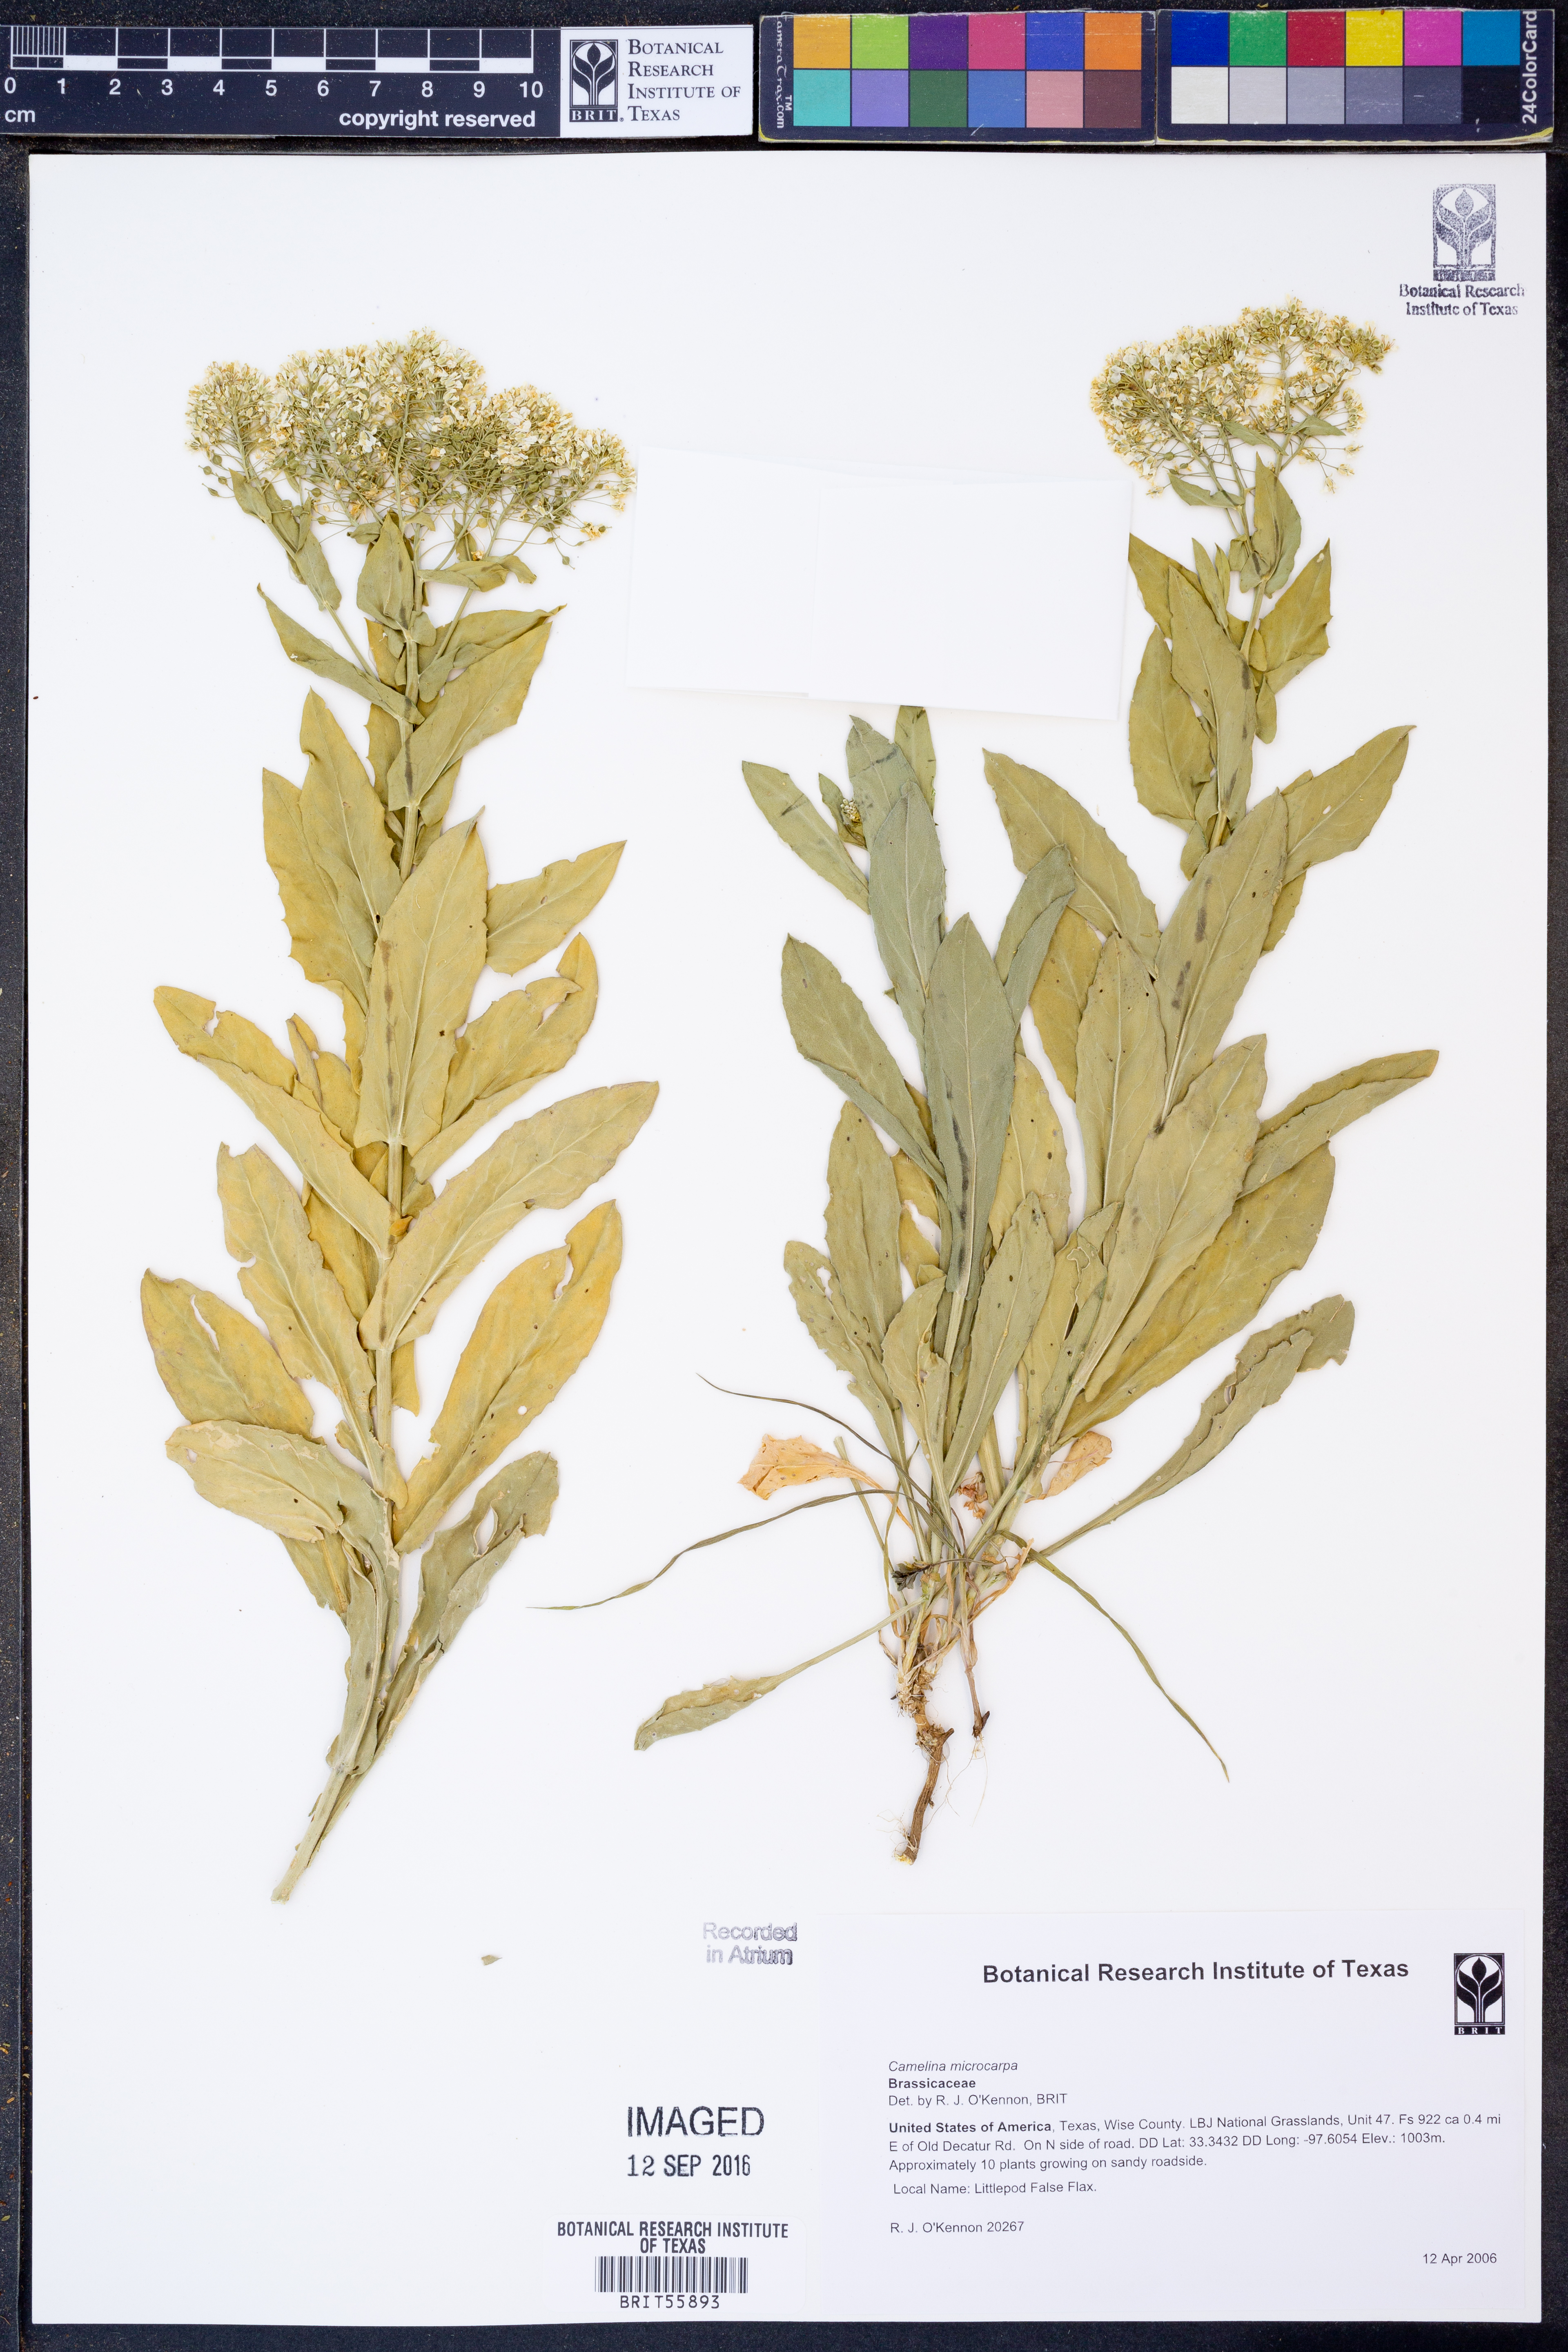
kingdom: Plantae
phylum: Tracheophyta
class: Magnoliopsida
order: Brassicales
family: Brassicaceae
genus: Camelina
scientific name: Camelina microcarpa
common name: Lesser gold-of-pleasure
